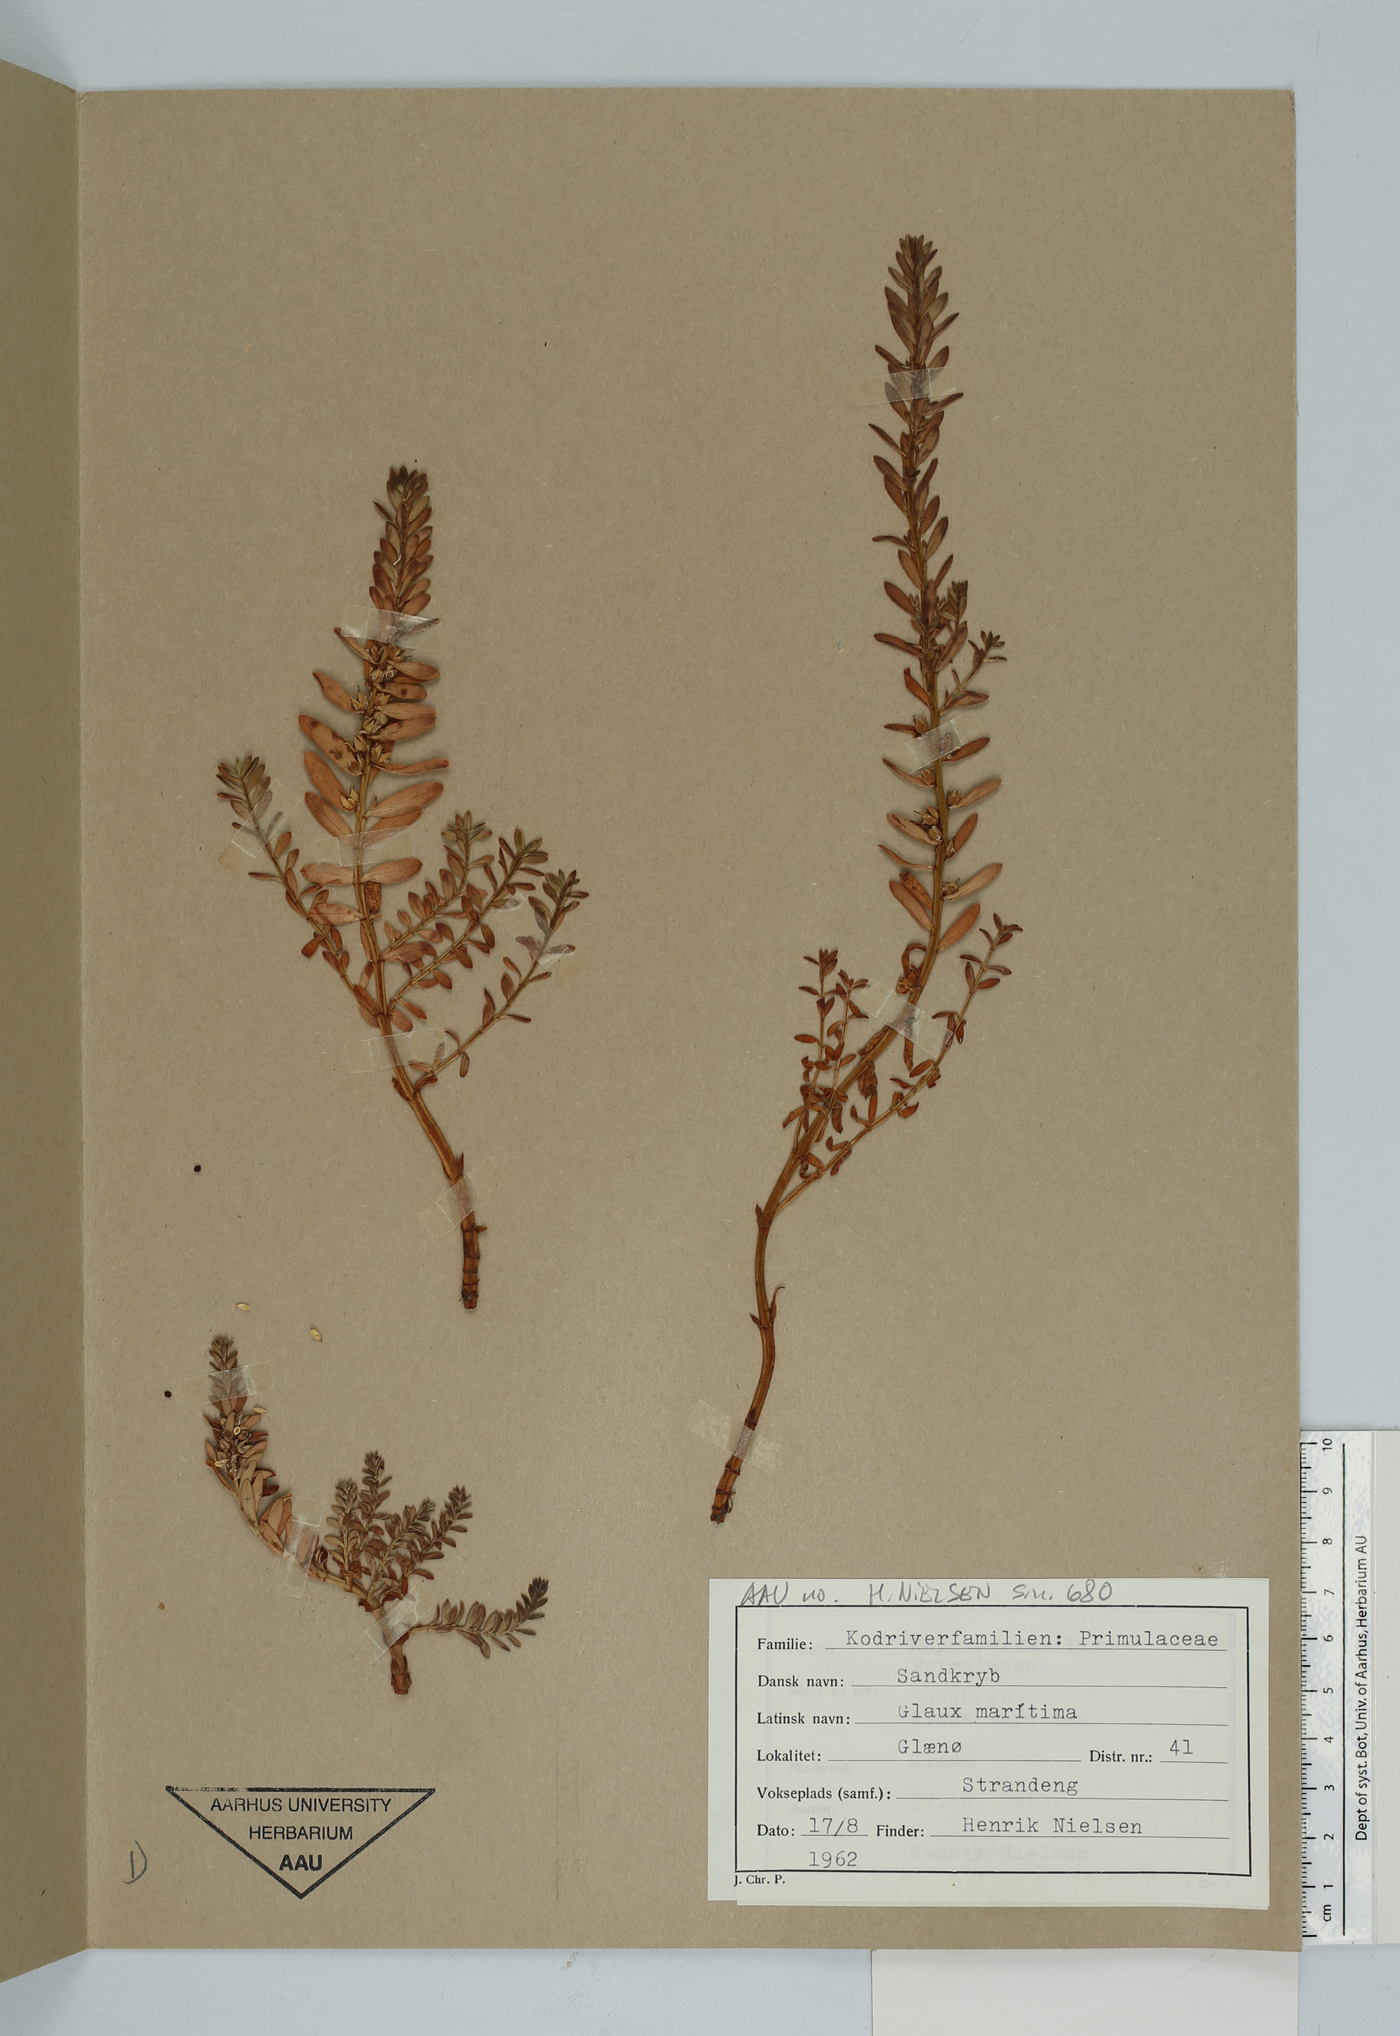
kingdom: Plantae
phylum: Tracheophyta
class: Magnoliopsida
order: Ericales
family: Primulaceae
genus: Lysimachia
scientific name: Lysimachia maritima
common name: Sea milkwort
